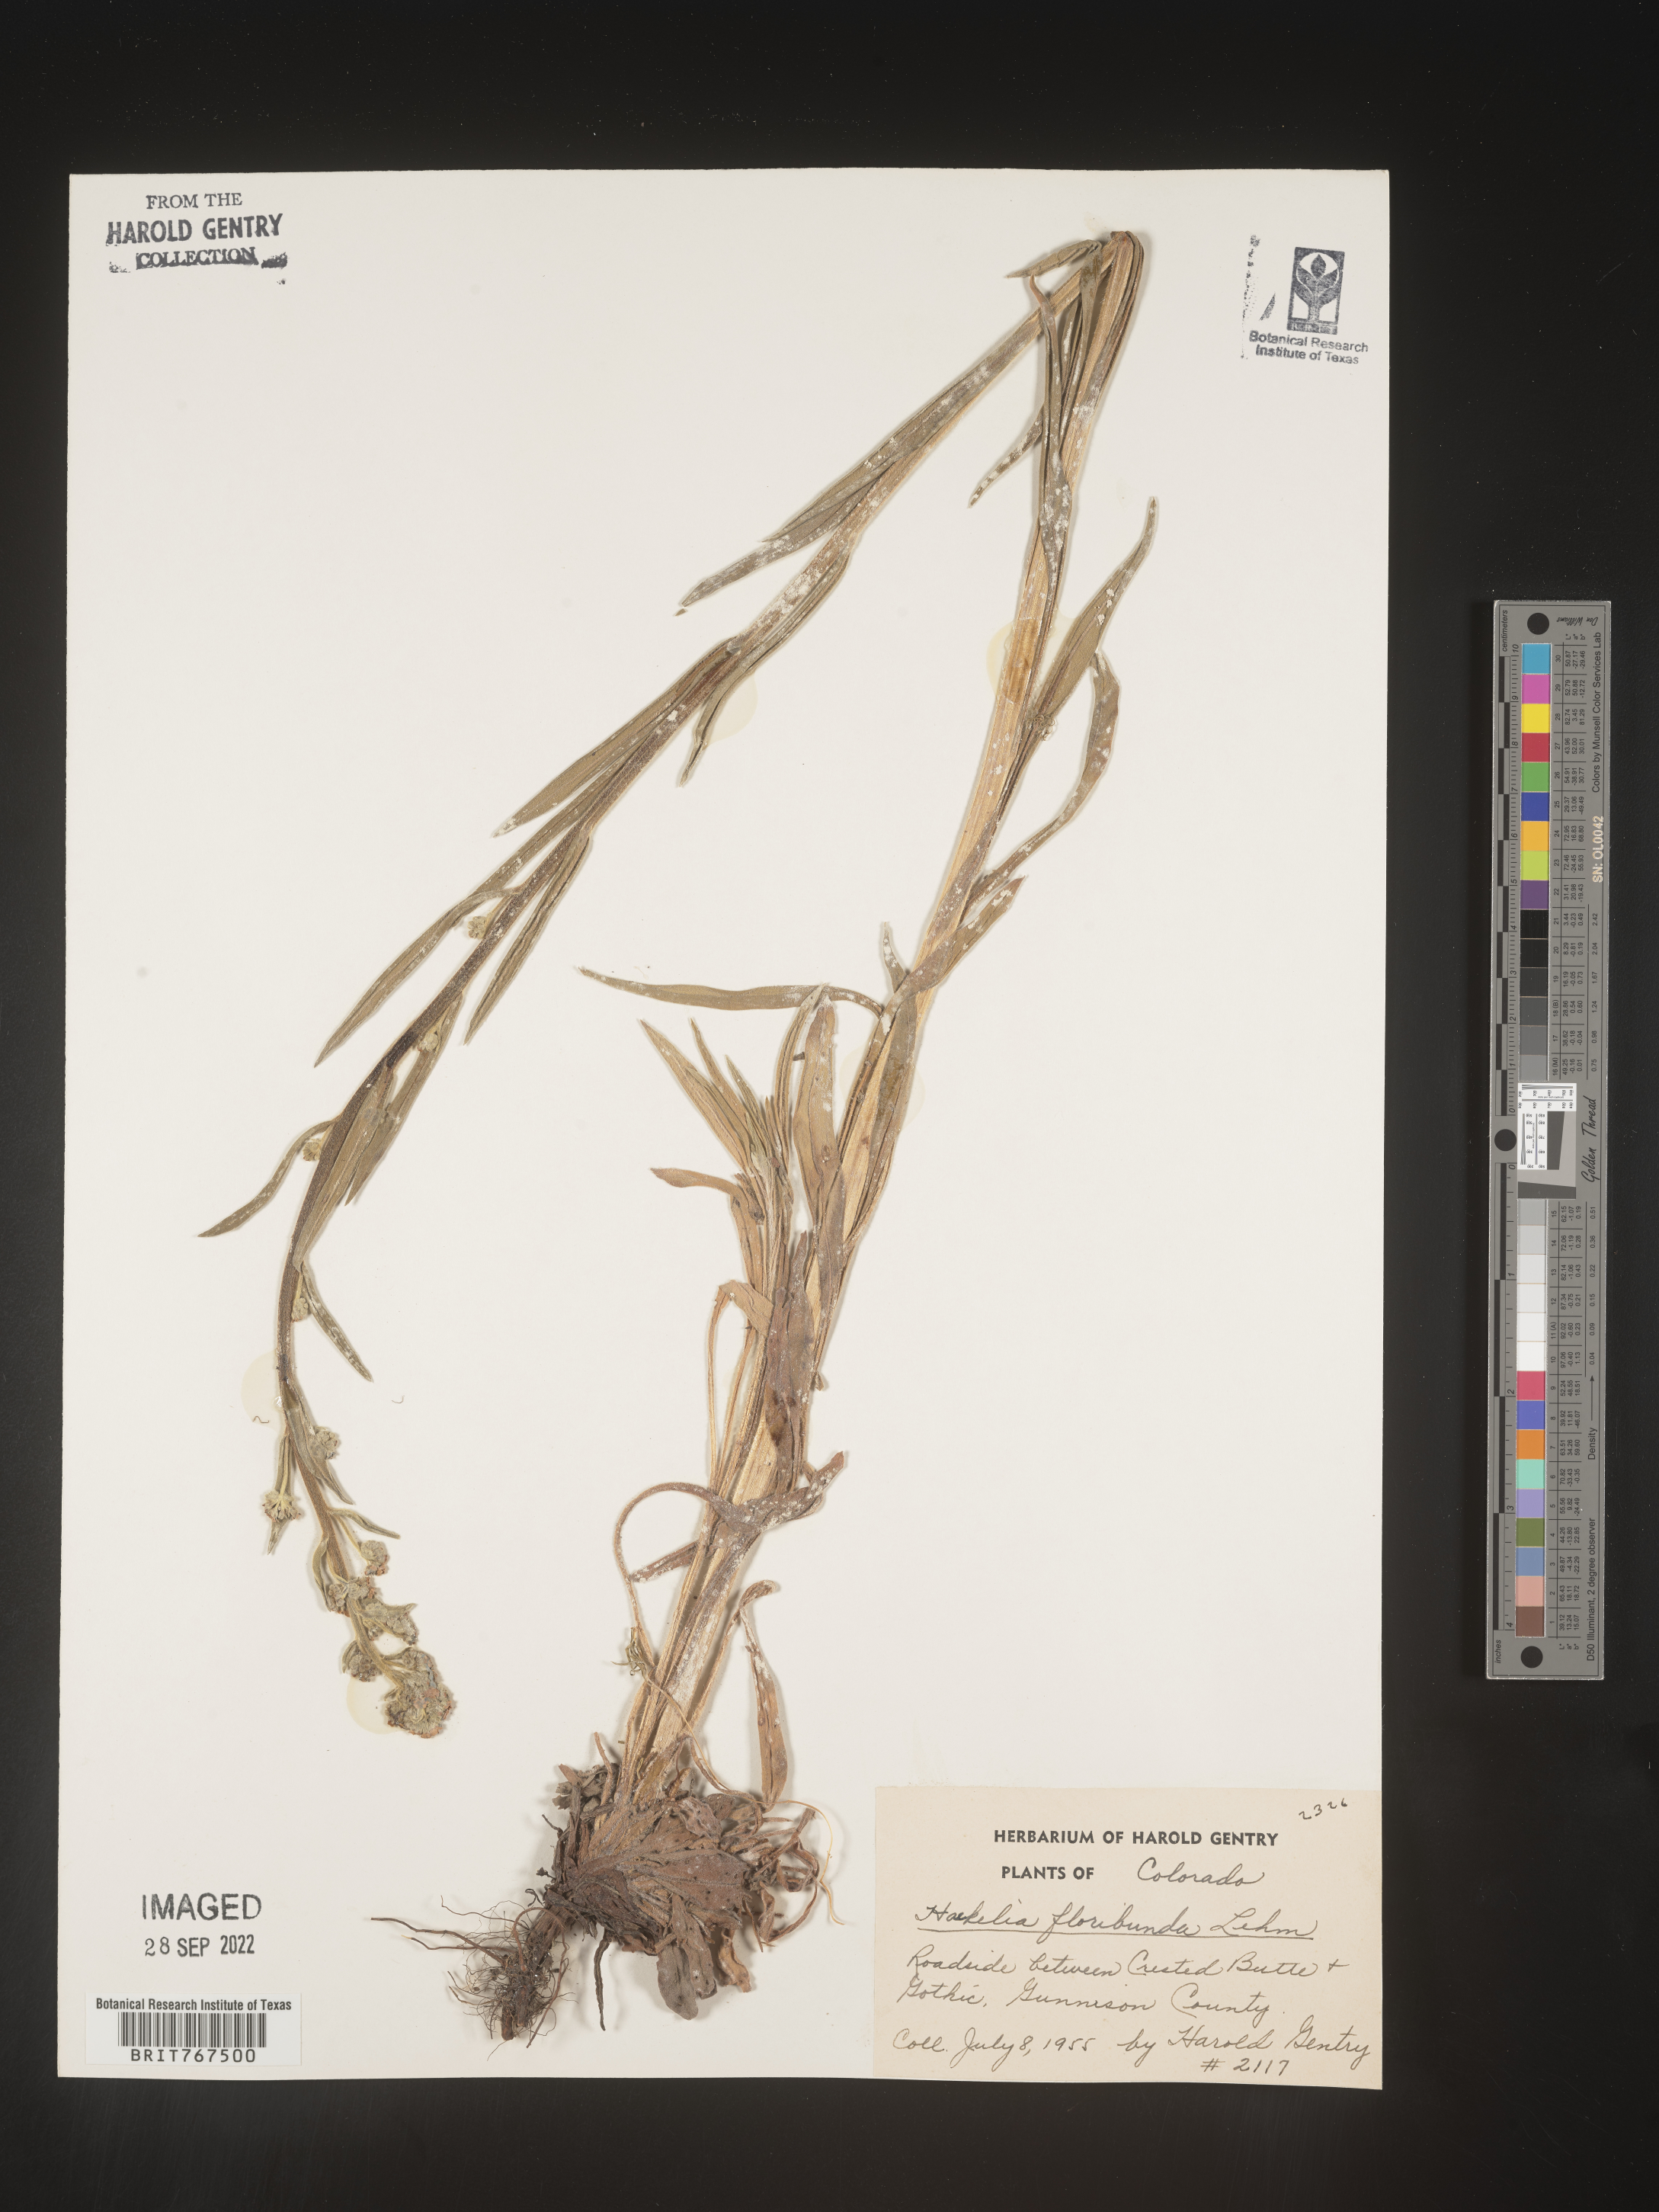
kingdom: Plantae
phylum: Tracheophyta
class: Magnoliopsida
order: Boraginales
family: Boraginaceae
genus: Hackelia
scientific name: Hackelia floribunda
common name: Large-flowered stickseed
